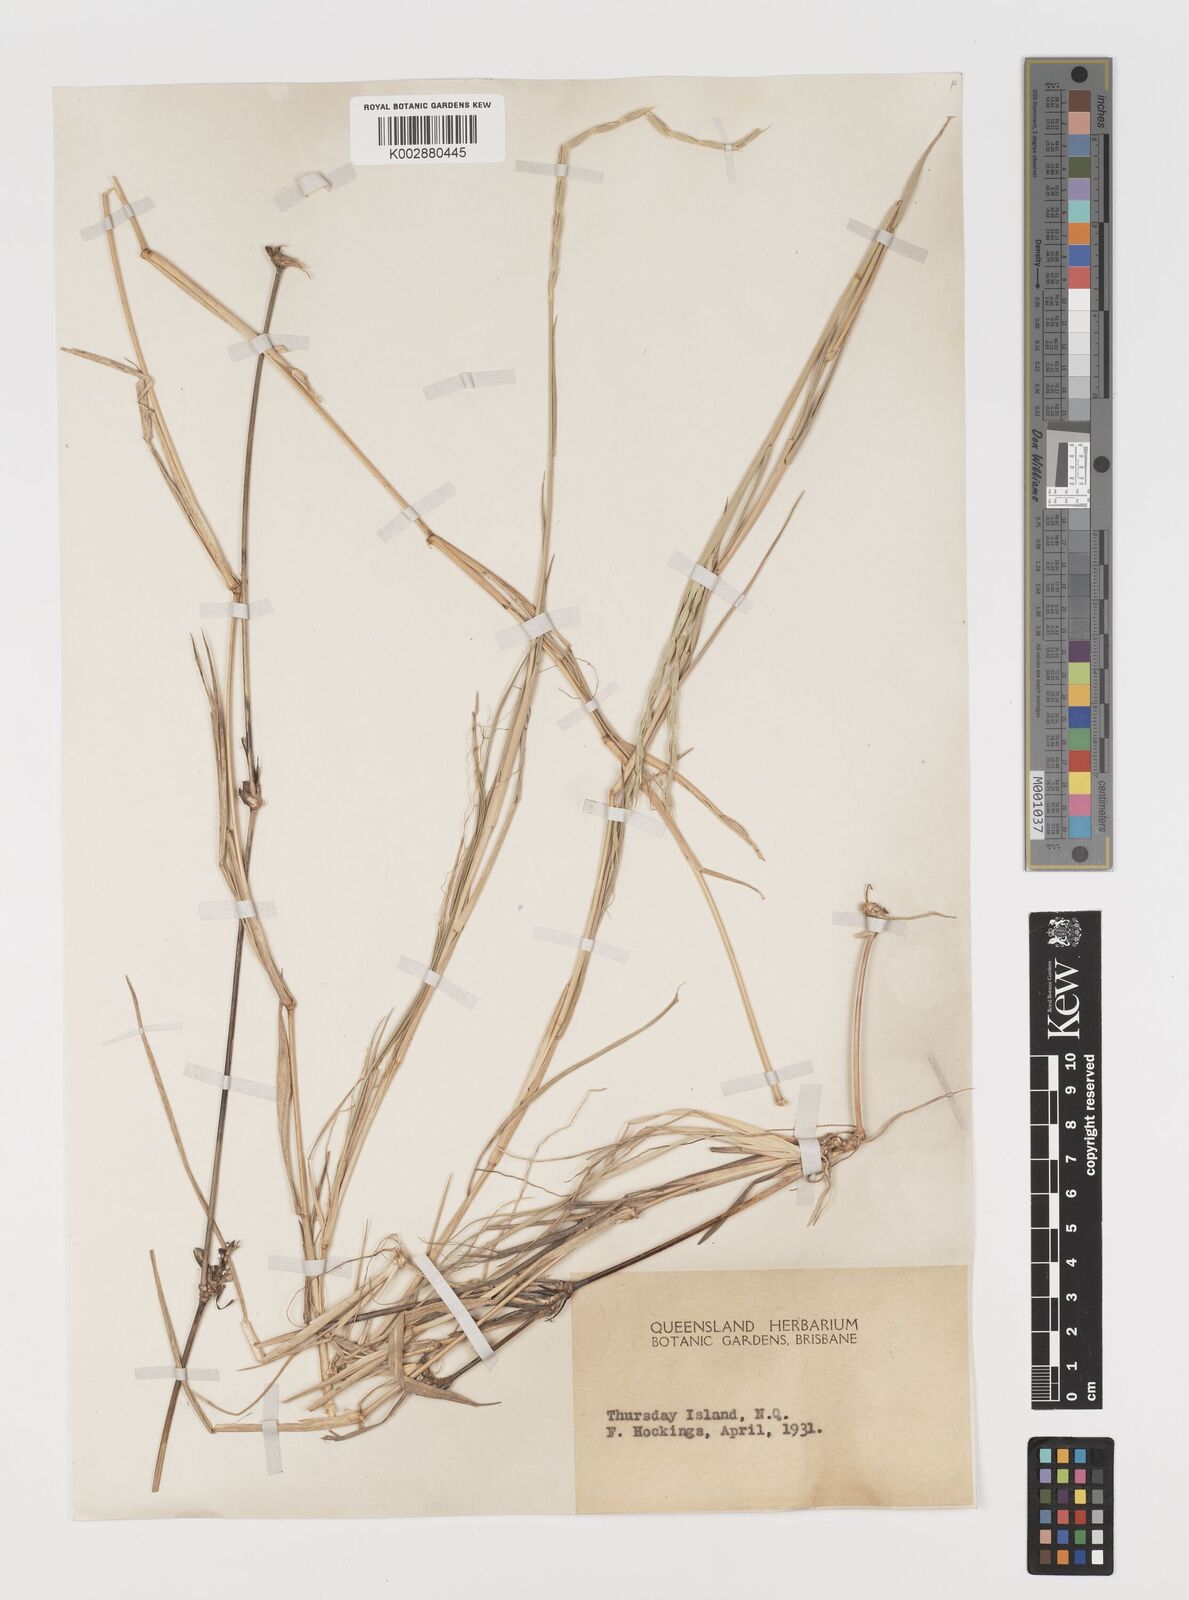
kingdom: Plantae
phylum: Tracheophyta
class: Liliopsida
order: Poales
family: Poaceae
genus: Lepturus
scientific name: Lepturus repens
